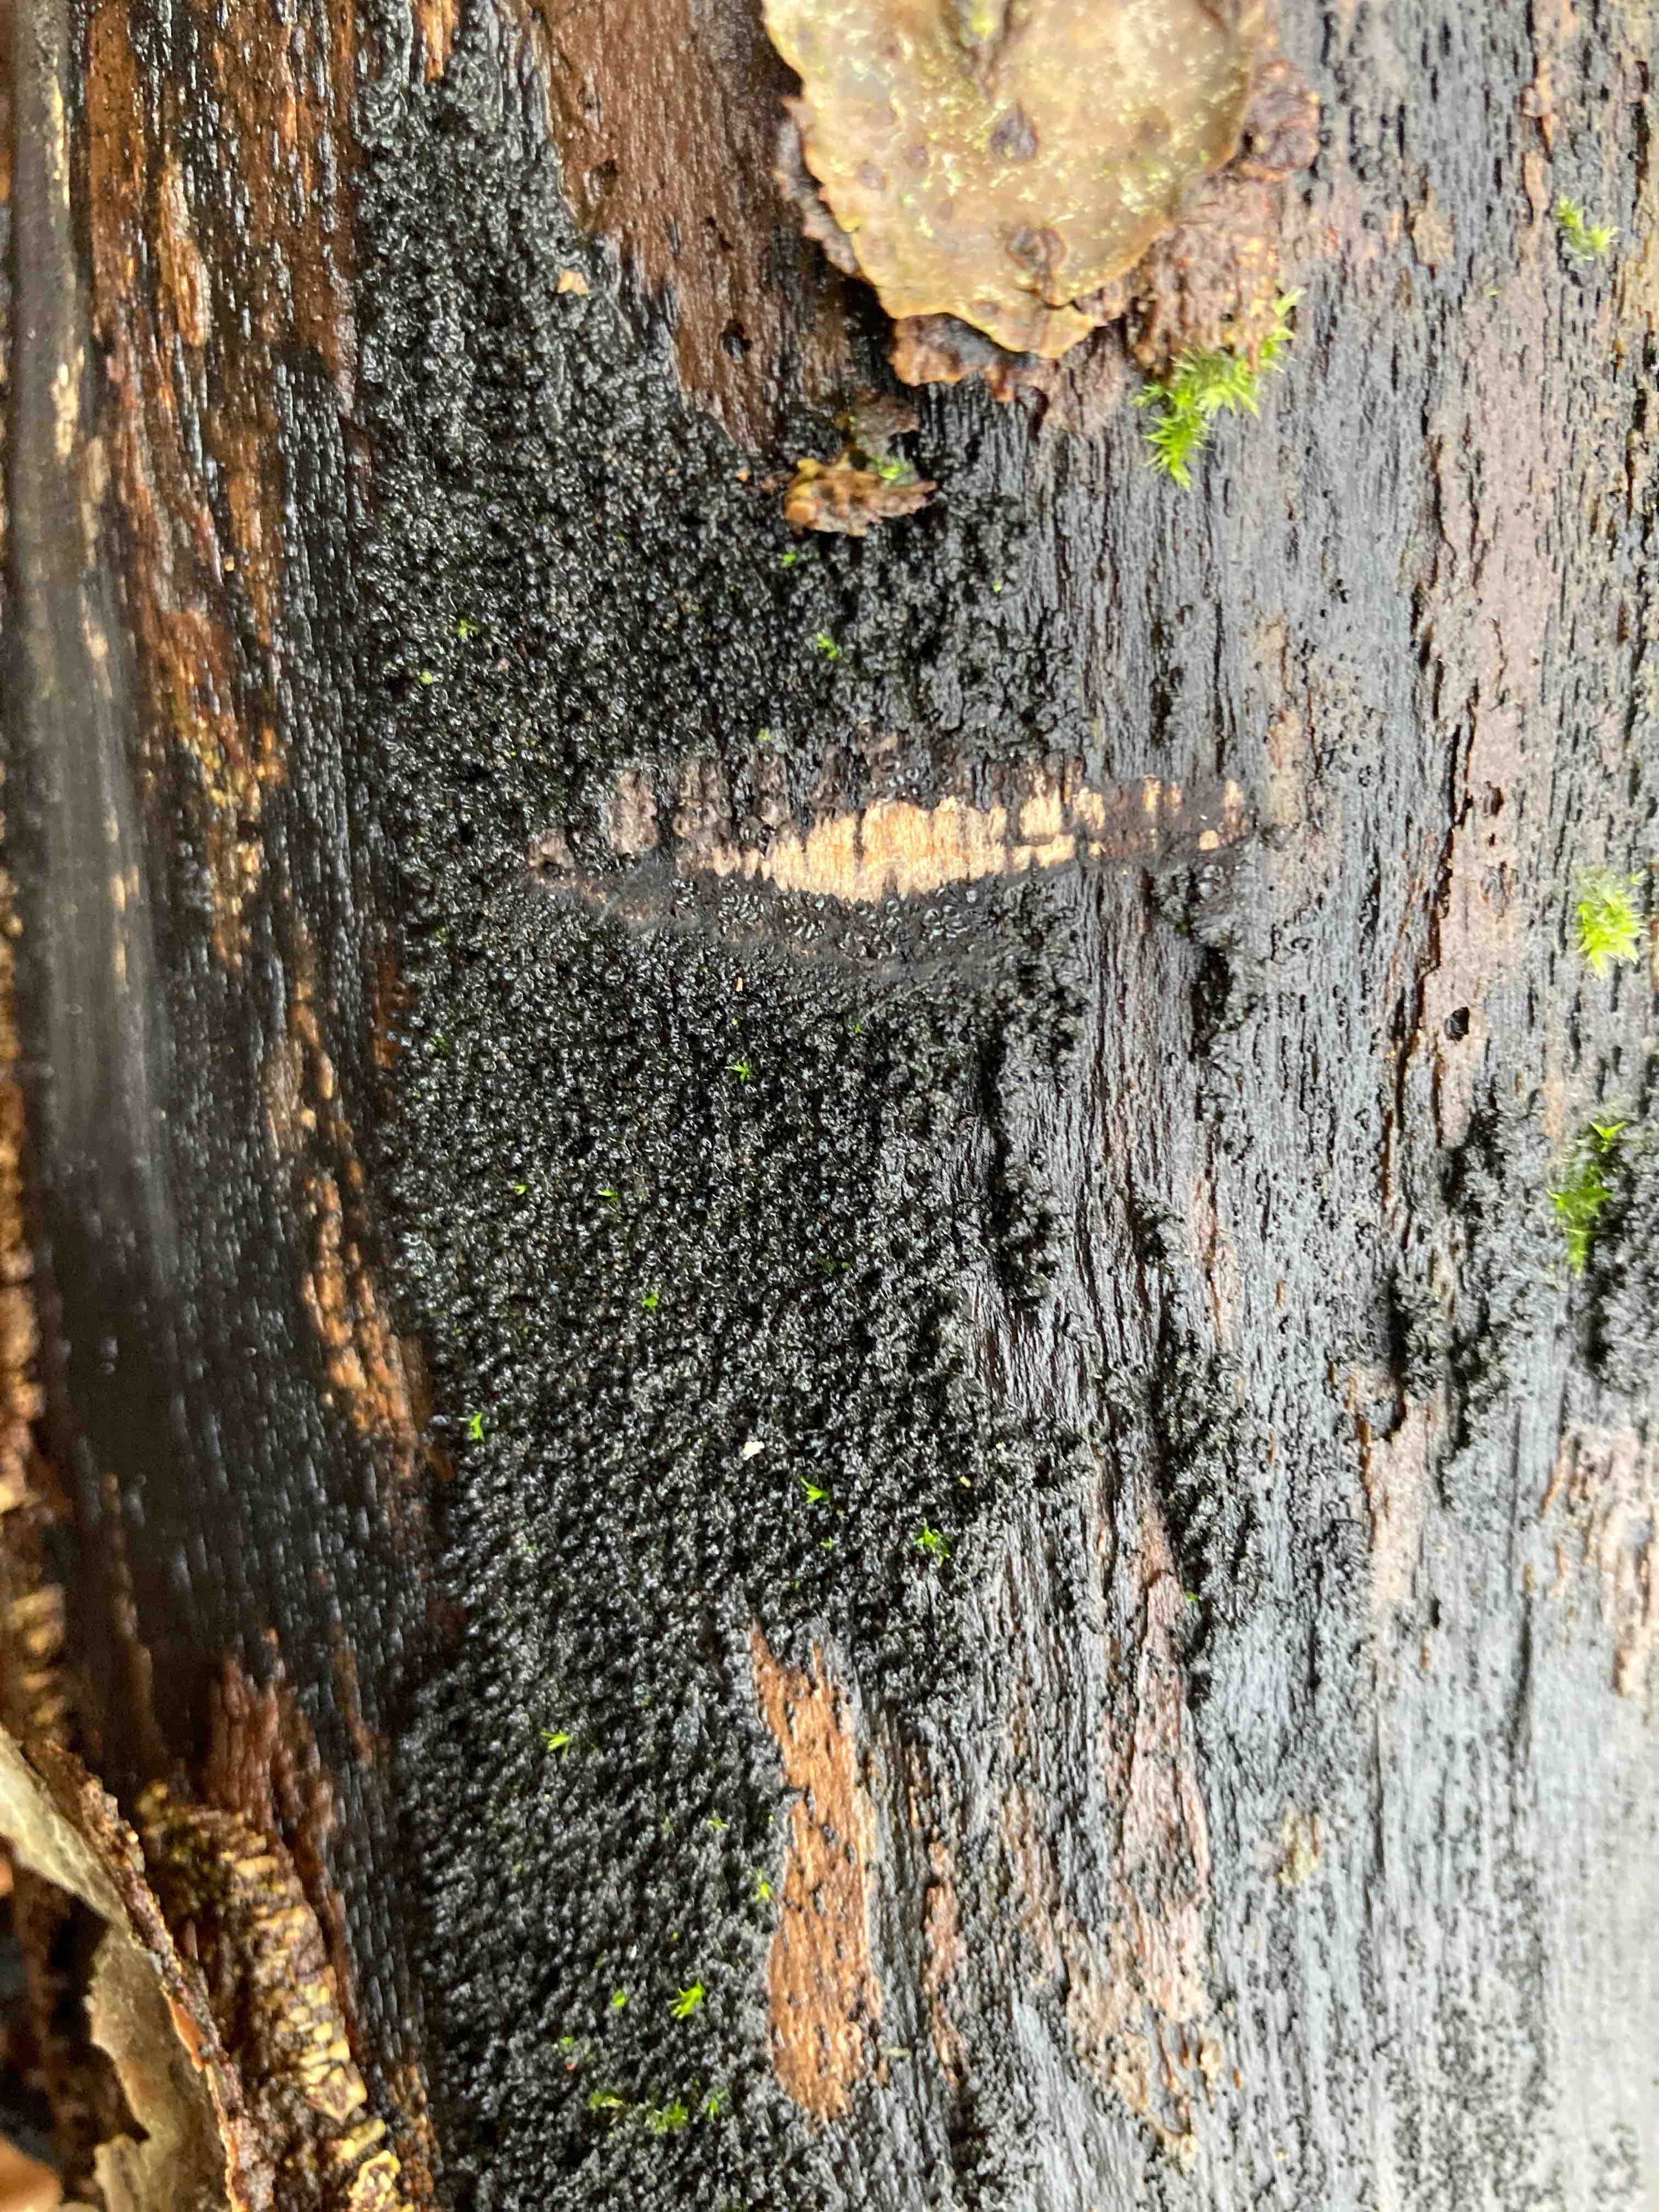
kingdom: Fungi
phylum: Ascomycota
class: Sordariomycetes
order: Xylariales
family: Diatrypaceae
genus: Eutypa
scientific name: Eutypa spinosa
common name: grov kulskorpe
